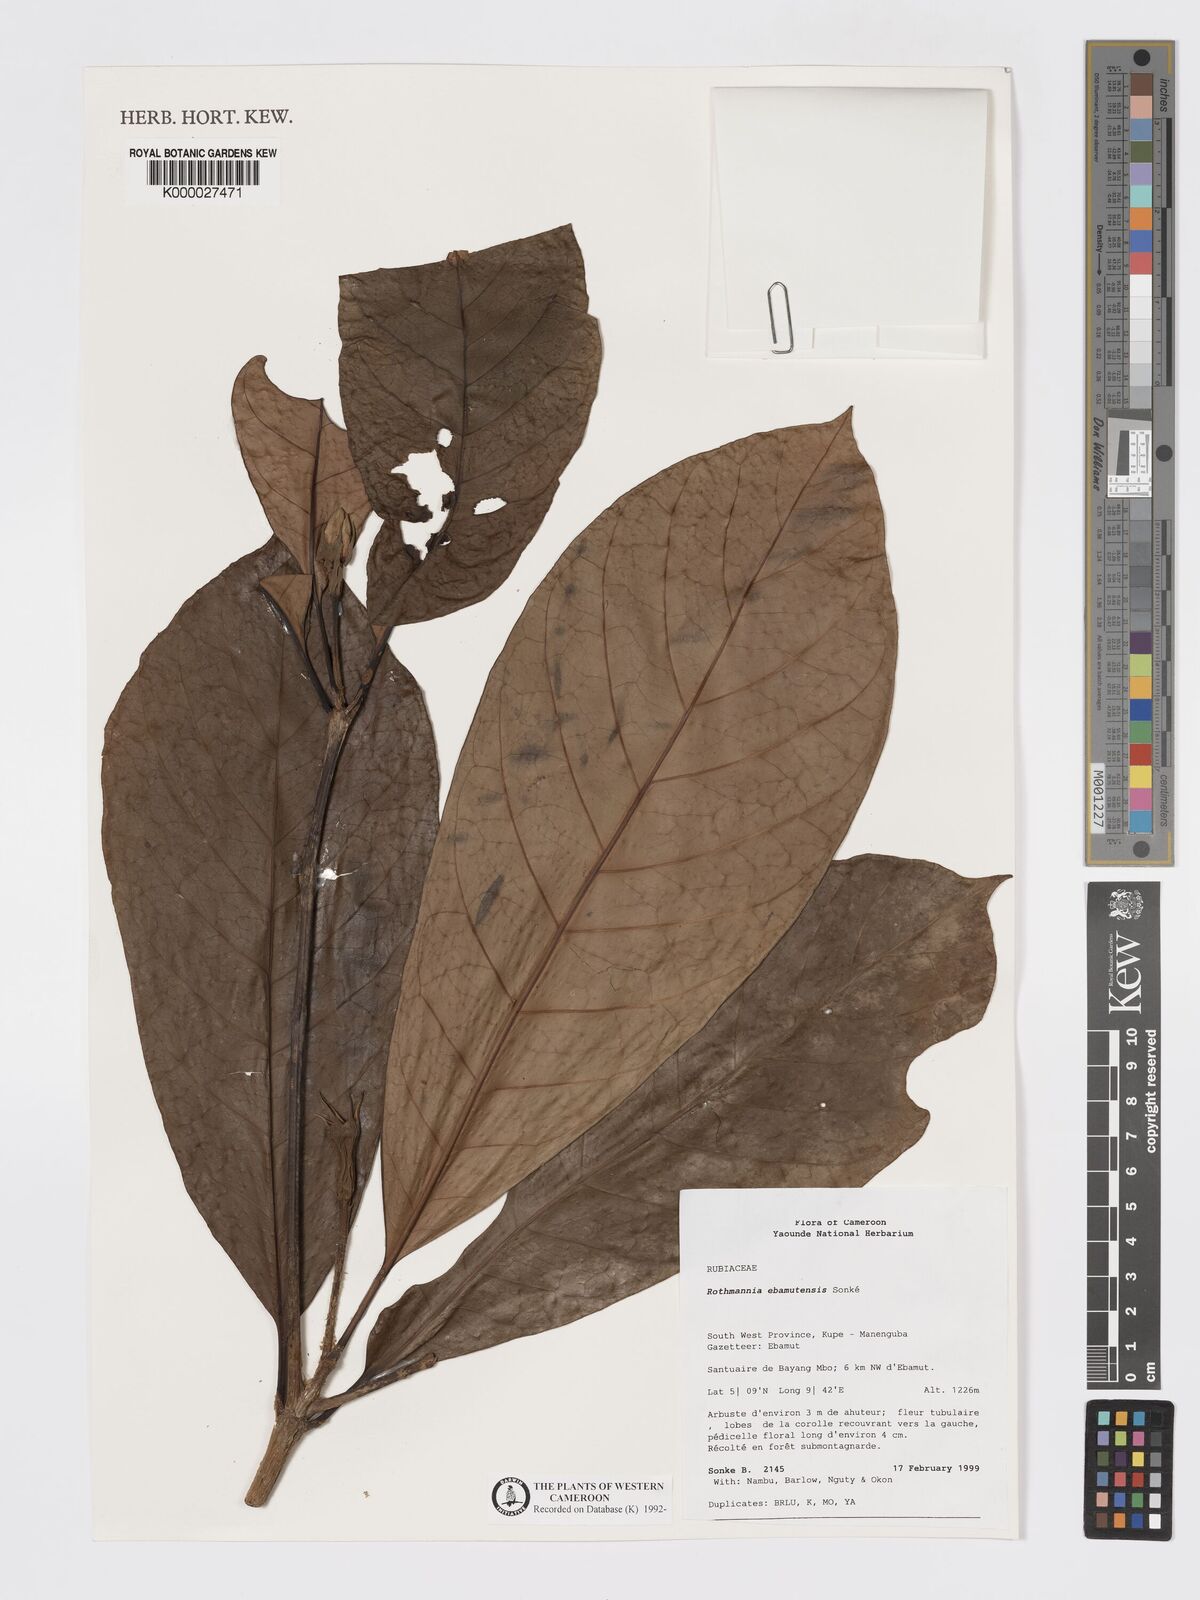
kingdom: Plantae
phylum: Tracheophyta
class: Magnoliopsida
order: Gentianales
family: Rubiaceae
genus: Rothmannia
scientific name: Rothmannia
